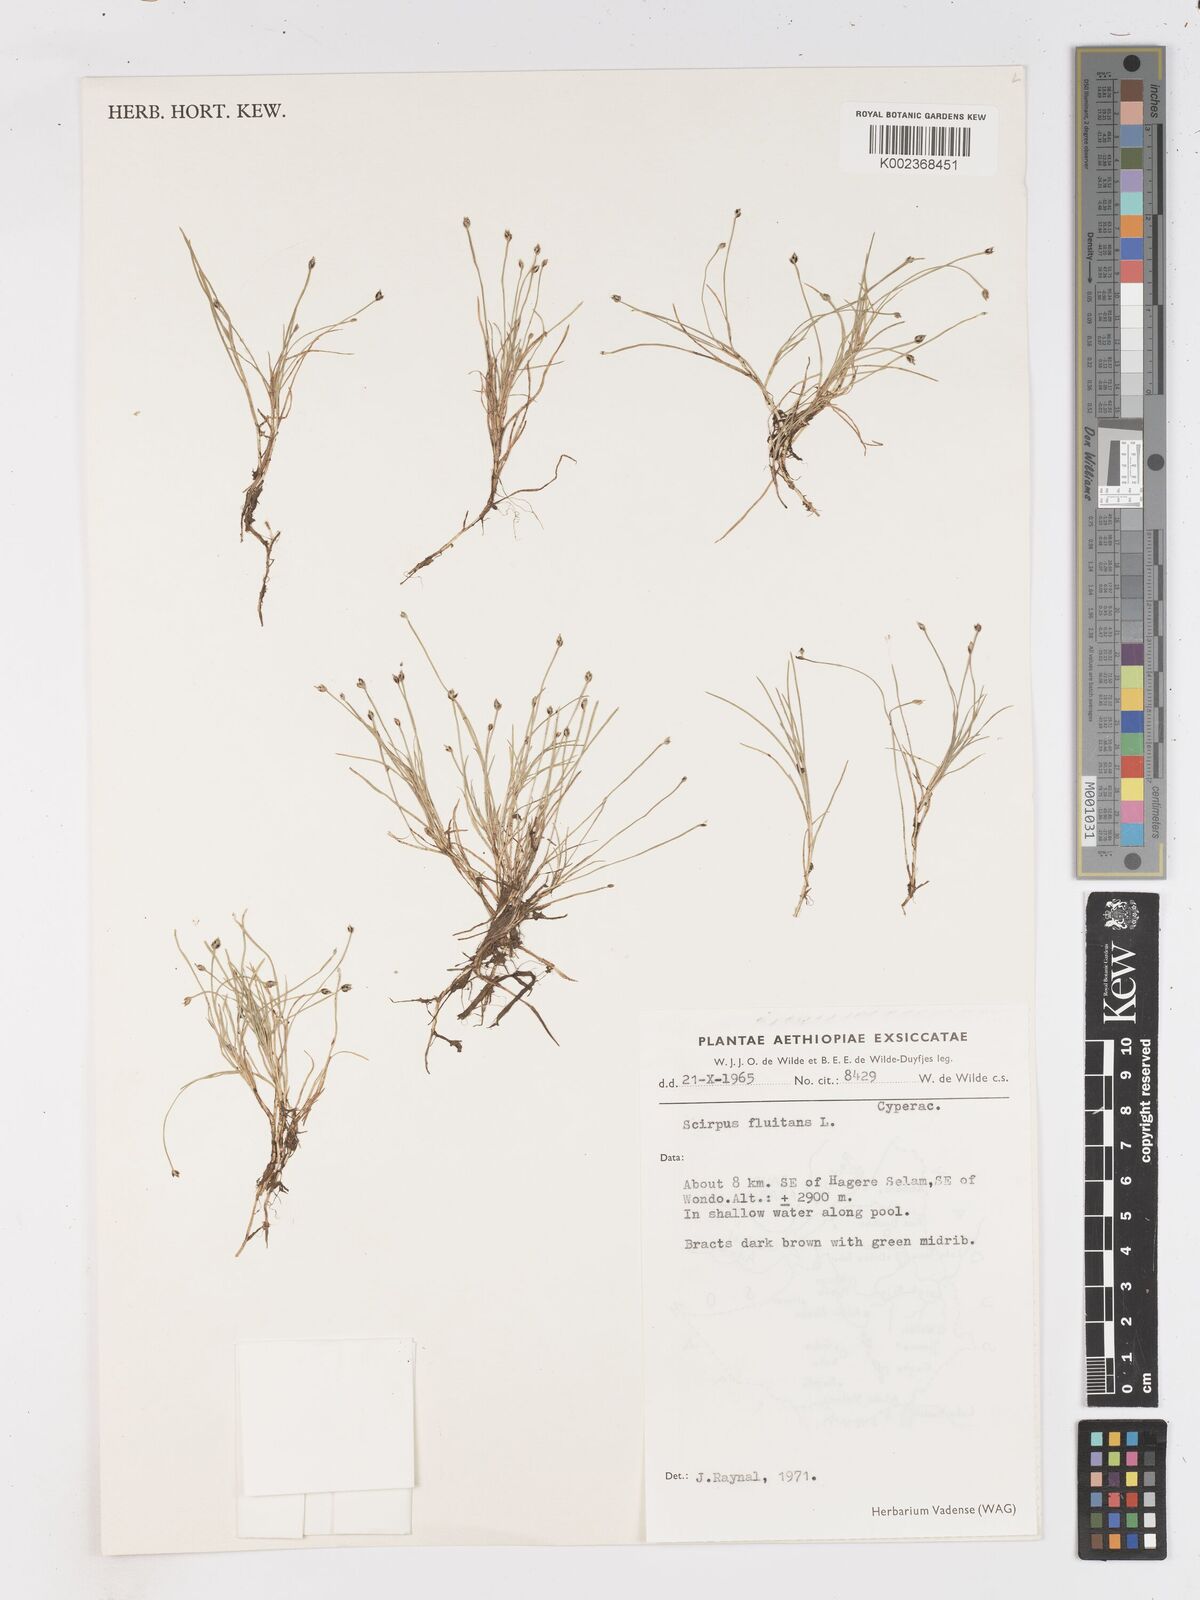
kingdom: Plantae
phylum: Tracheophyta
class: Liliopsida
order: Poales
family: Cyperaceae
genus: Isolepis
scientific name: Isolepis fluitans
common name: Floating club-rush
